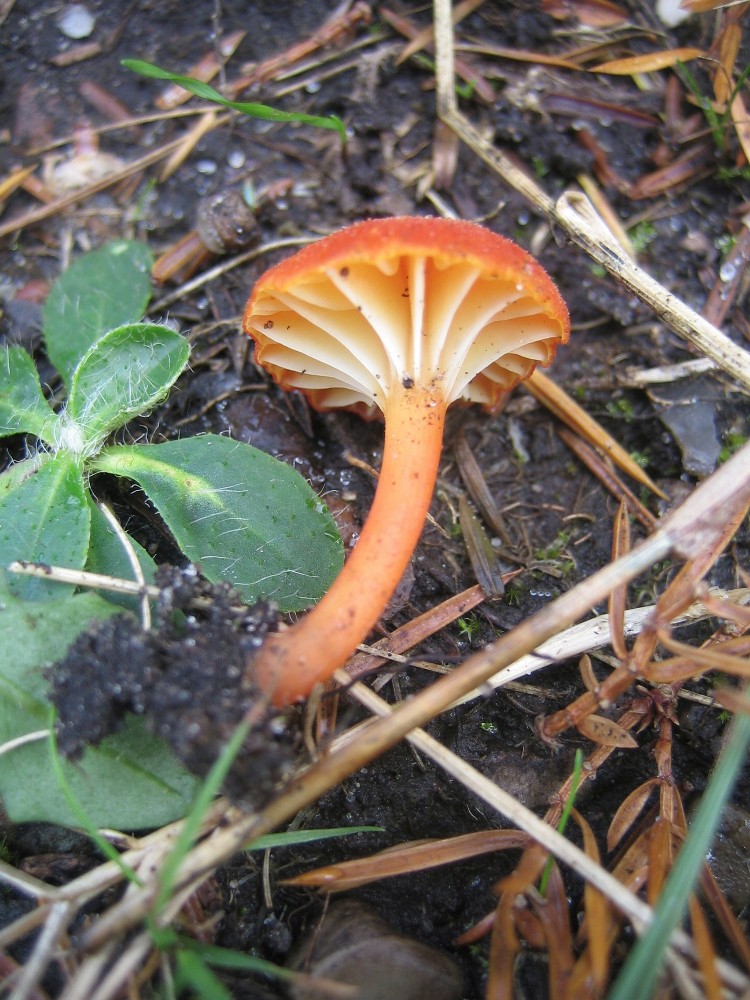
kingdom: Fungi
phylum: Basidiomycota
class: Agaricomycetes
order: Agaricales
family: Hygrophoraceae
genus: Hygrocybe
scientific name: Hygrocybe cantharellus
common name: kantarel-vokshat
